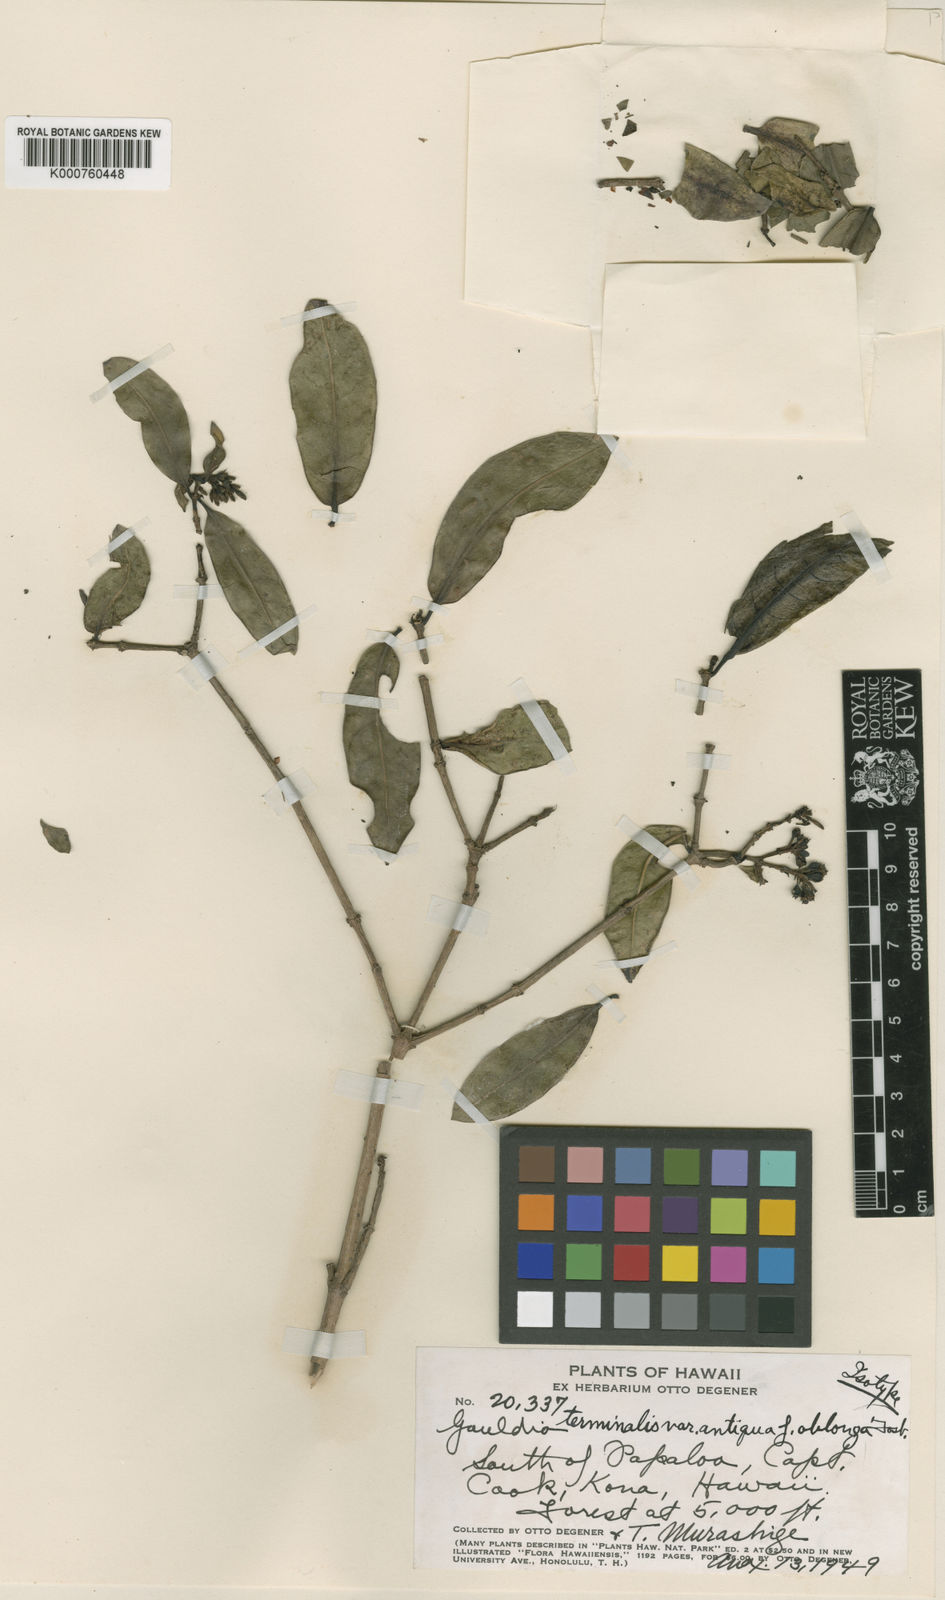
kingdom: Plantae
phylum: Tracheophyta
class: Magnoliopsida
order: Gentianales
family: Rubiaceae
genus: Kadua
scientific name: Kadua affinis
